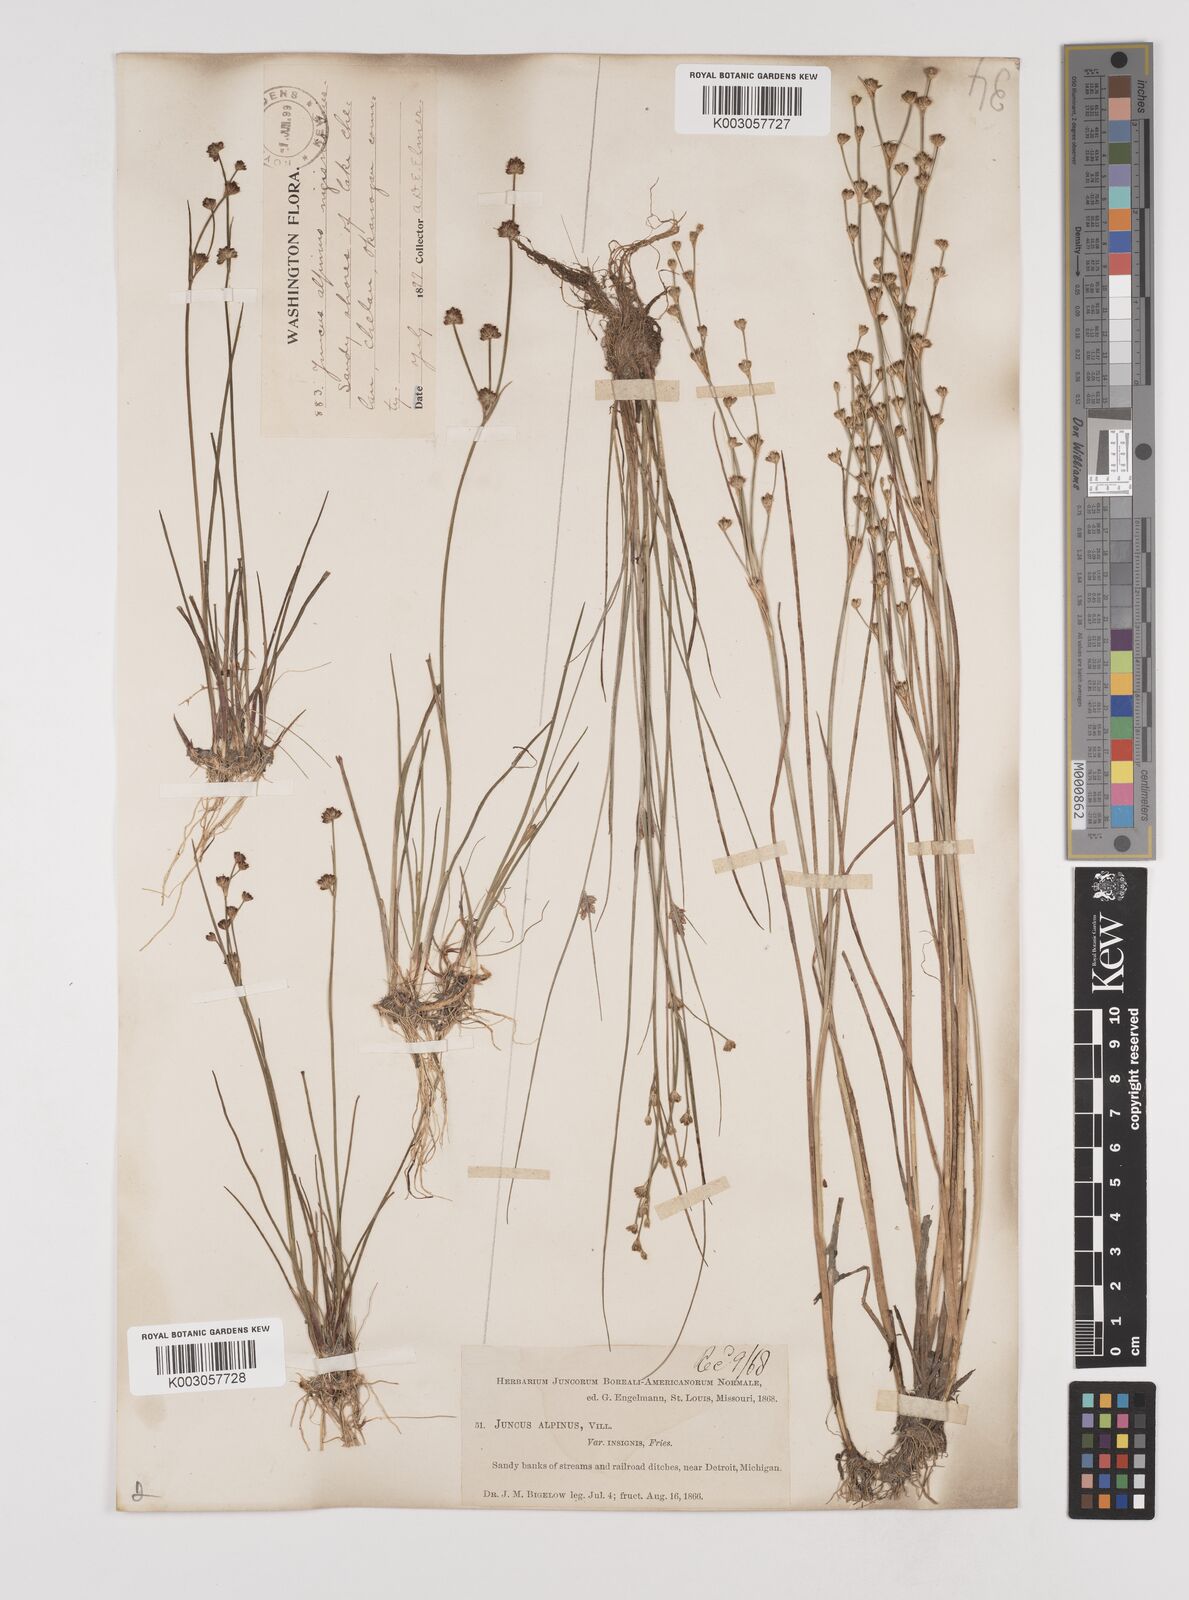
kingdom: Plantae
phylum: Tracheophyta
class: Liliopsida
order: Poales
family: Juncaceae
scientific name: Juncaceae
